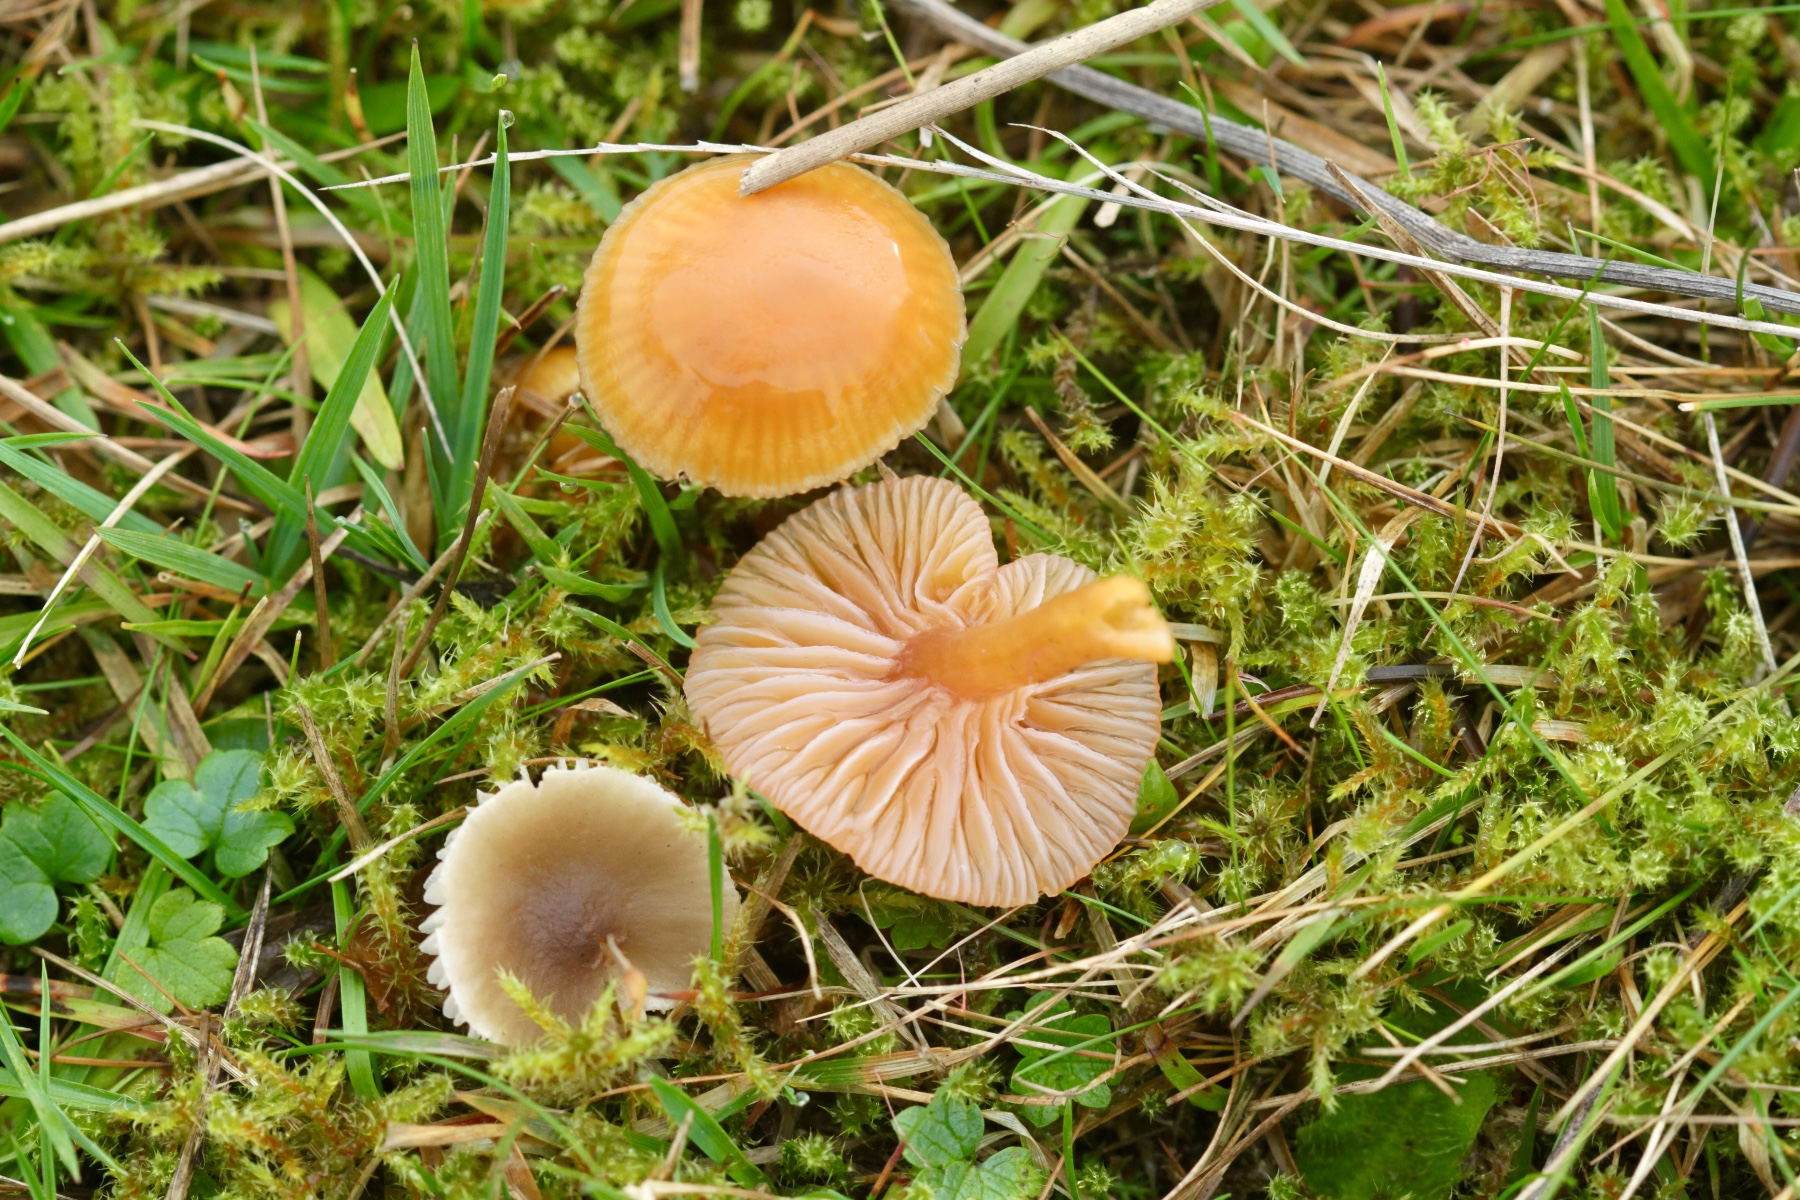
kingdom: Fungi
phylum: Basidiomycota
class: Agaricomycetes
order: Agaricales
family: Hygrophoraceae
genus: Gliophorus
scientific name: Gliophorus laetus
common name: brusk-vokshat
